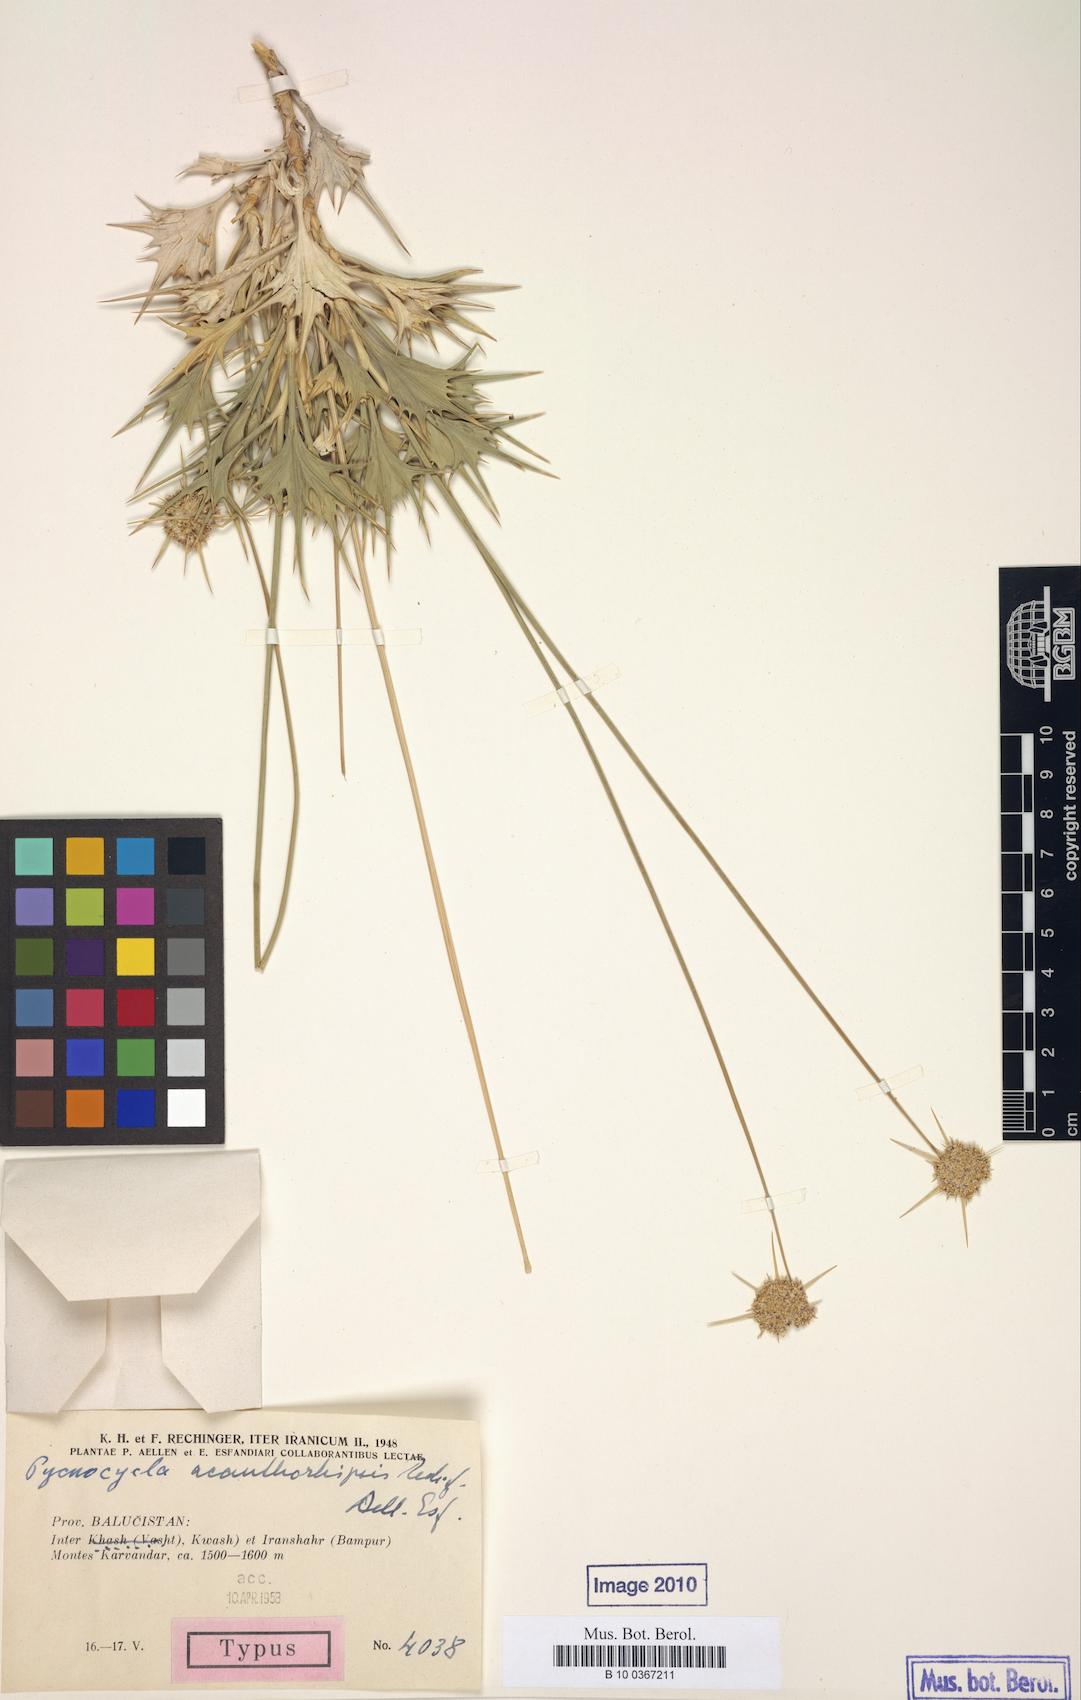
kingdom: Plantae
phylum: Tracheophyta
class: Magnoliopsida
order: Apiales
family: Apiaceae
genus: Pycnocycla
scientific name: Pycnocycla acanthorhipsis
